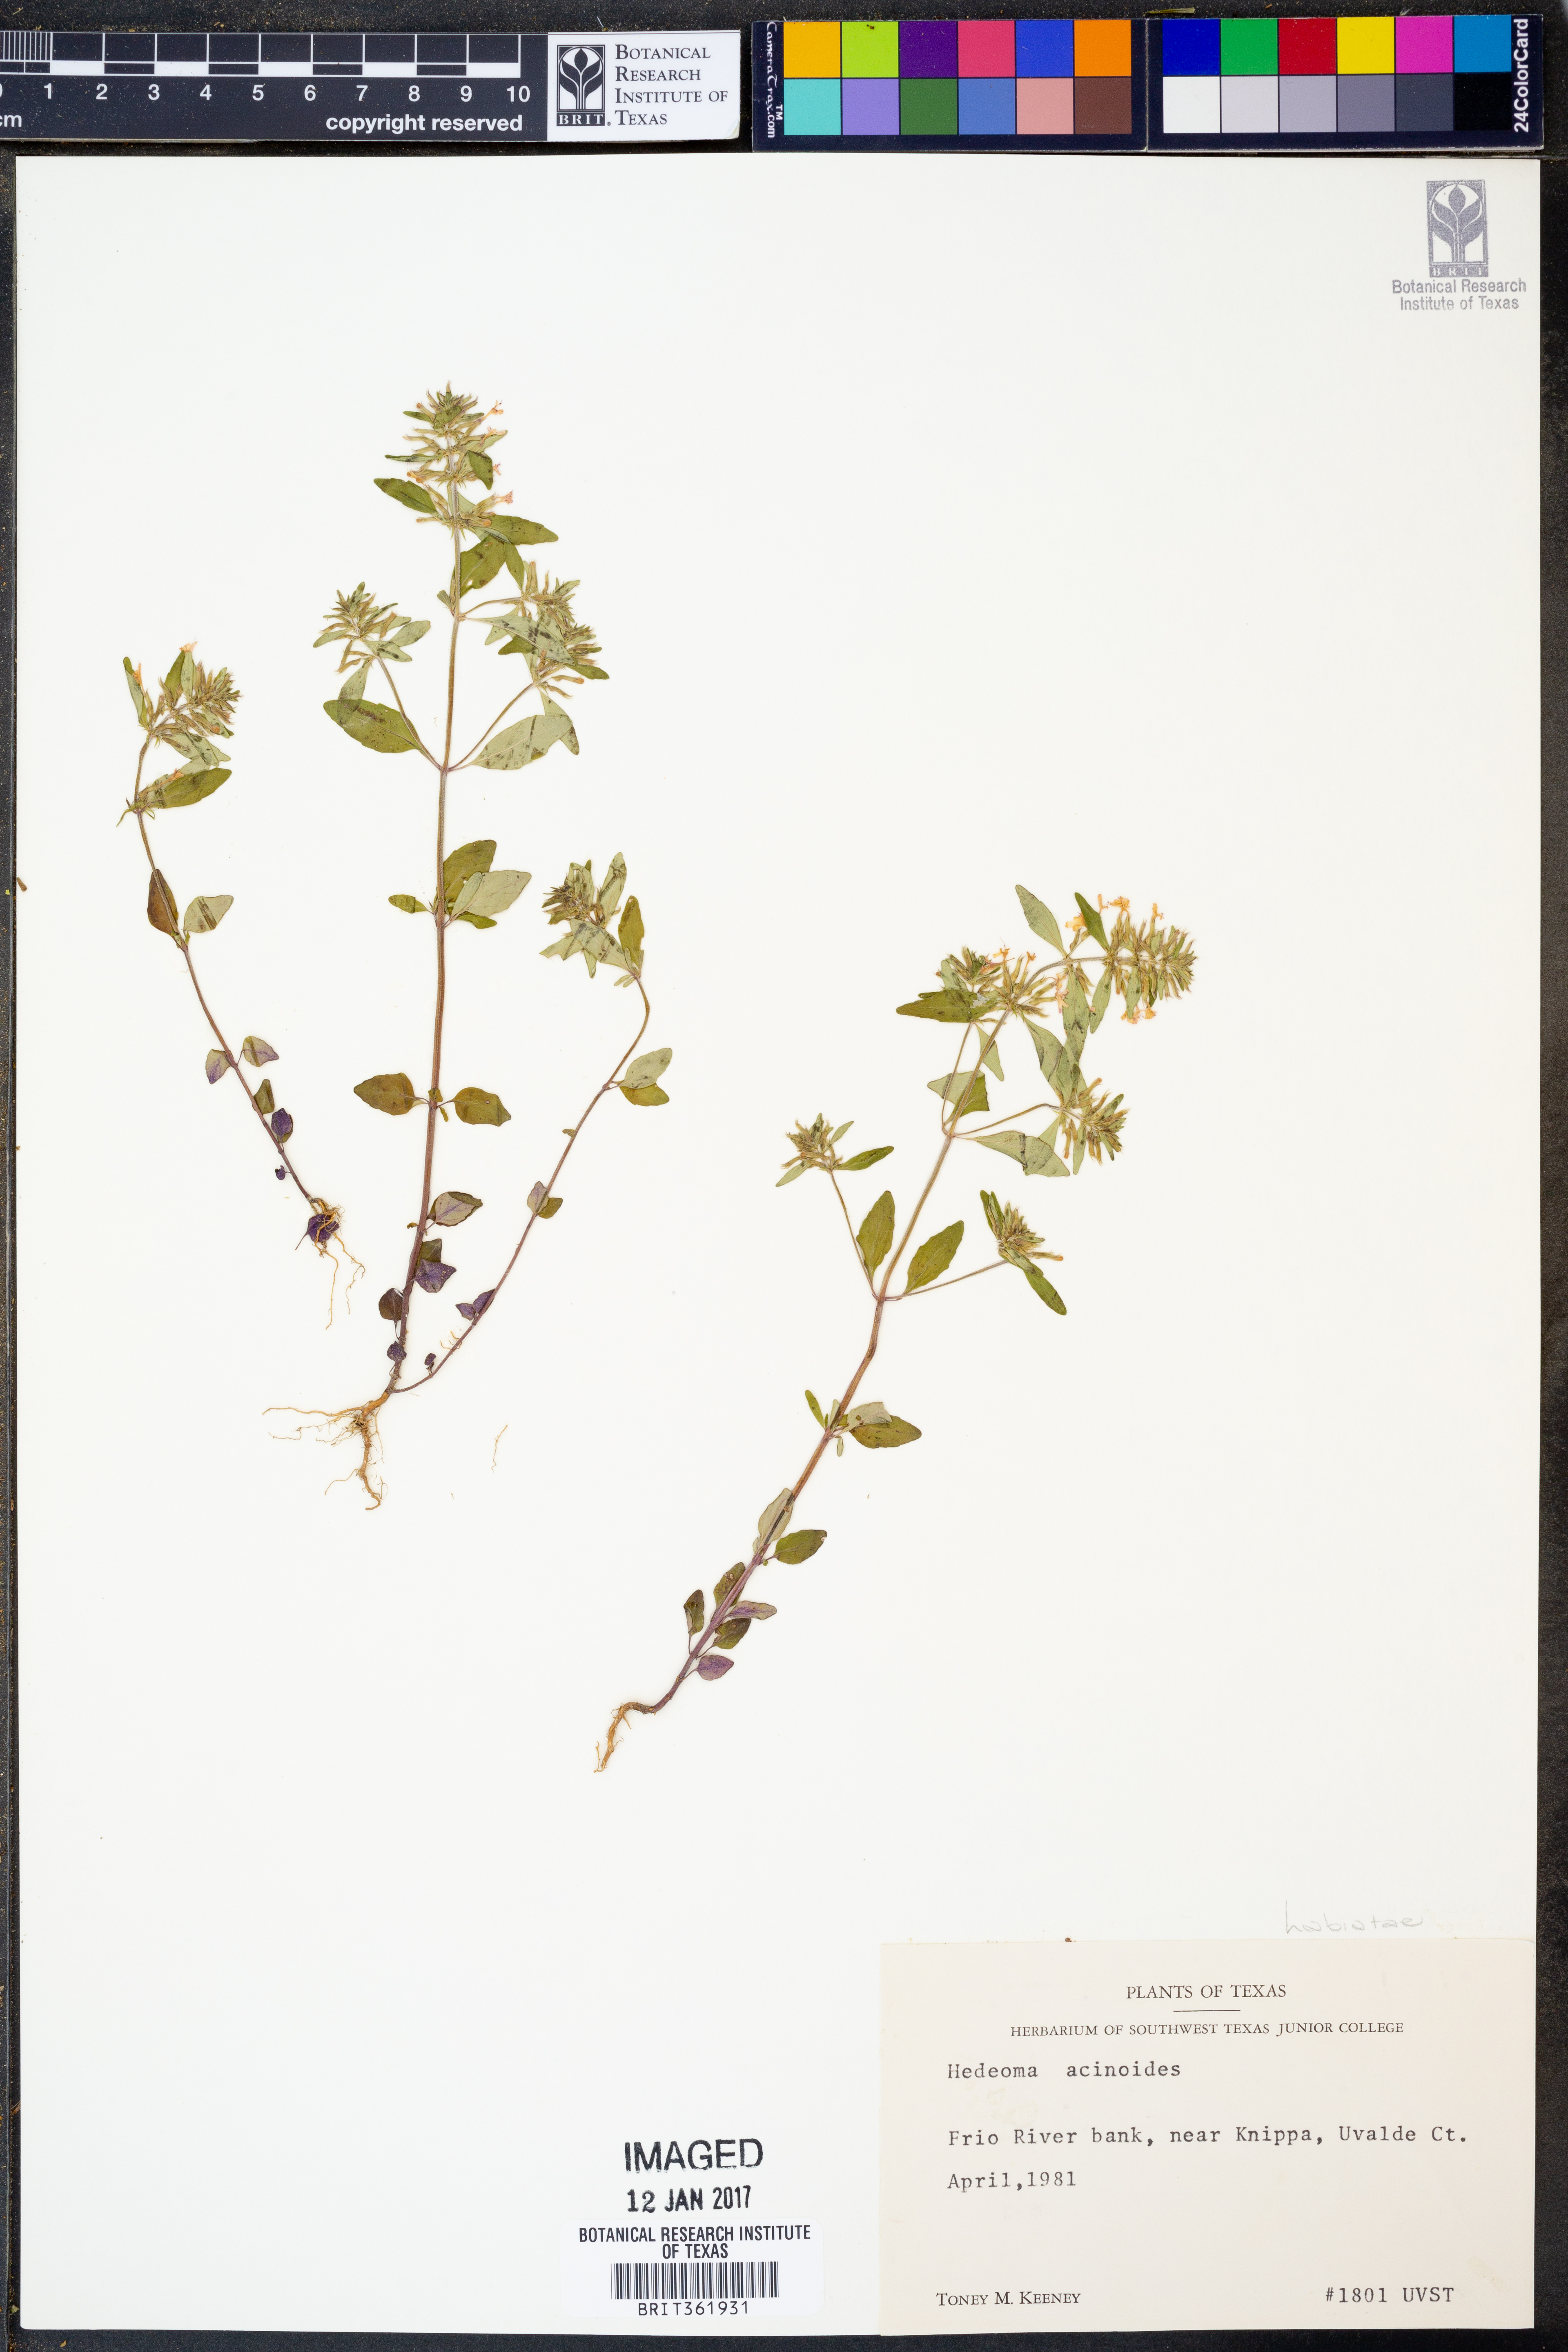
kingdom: Plantae
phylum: Tracheophyta
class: Magnoliopsida
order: Lamiales
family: Lamiaceae
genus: Hedeoma
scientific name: Hedeoma acinoides
